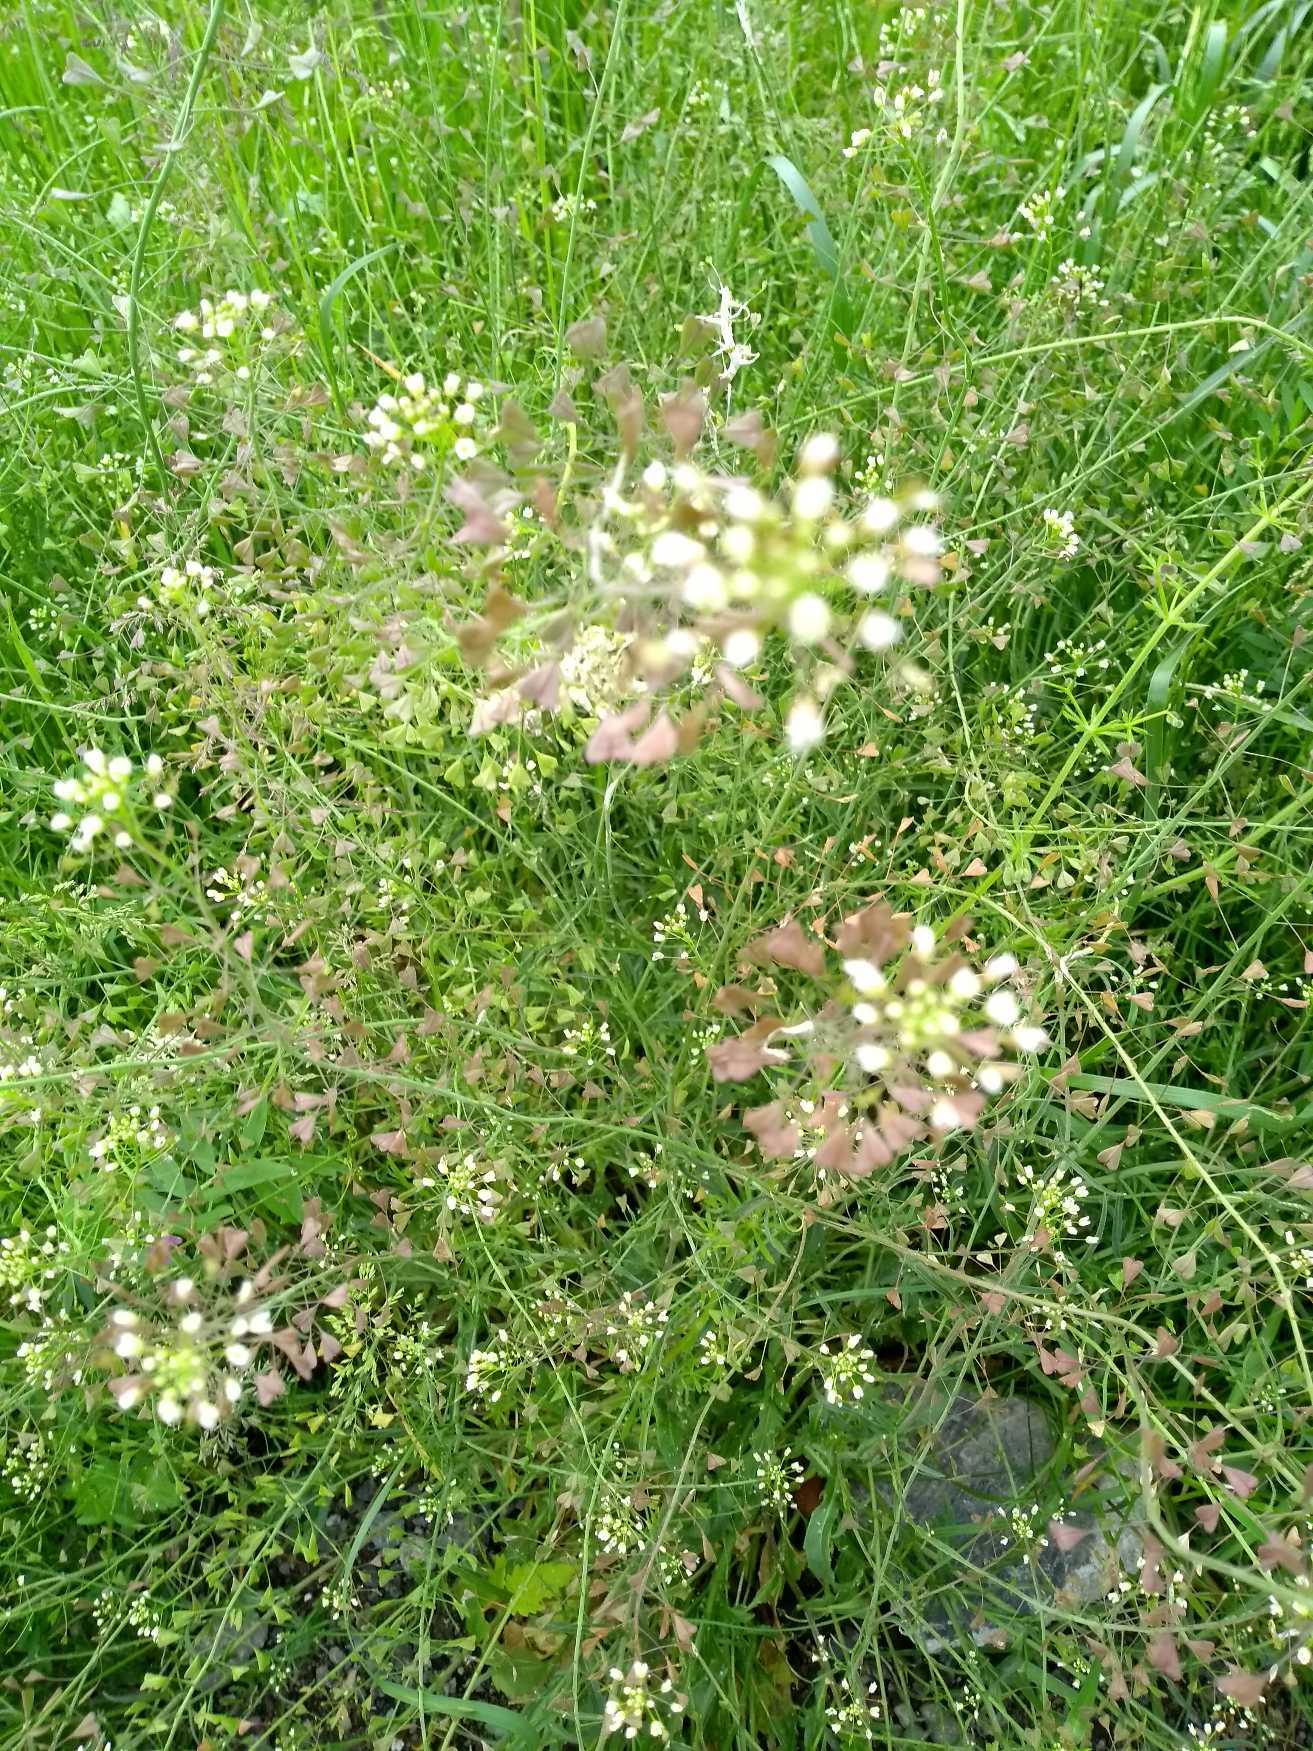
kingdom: Plantae
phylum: Tracheophyta
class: Magnoliopsida
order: Brassicales
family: Brassicaceae
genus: Capsella
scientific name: Capsella bursa-pastoris
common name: Hyrdetaske
